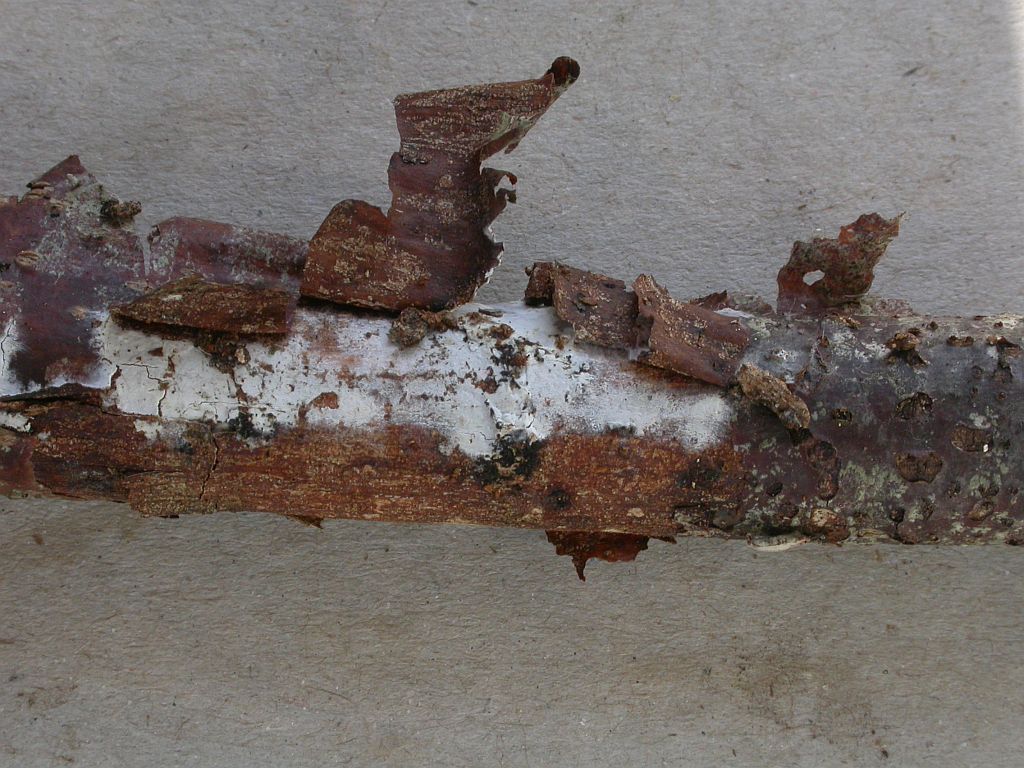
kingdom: Fungi
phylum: Basidiomycota
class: Agaricomycetes
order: Corticiales
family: Corticiaceae
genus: Lyomyces
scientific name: Lyomyces sambuci
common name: almindelig hyldehinde
